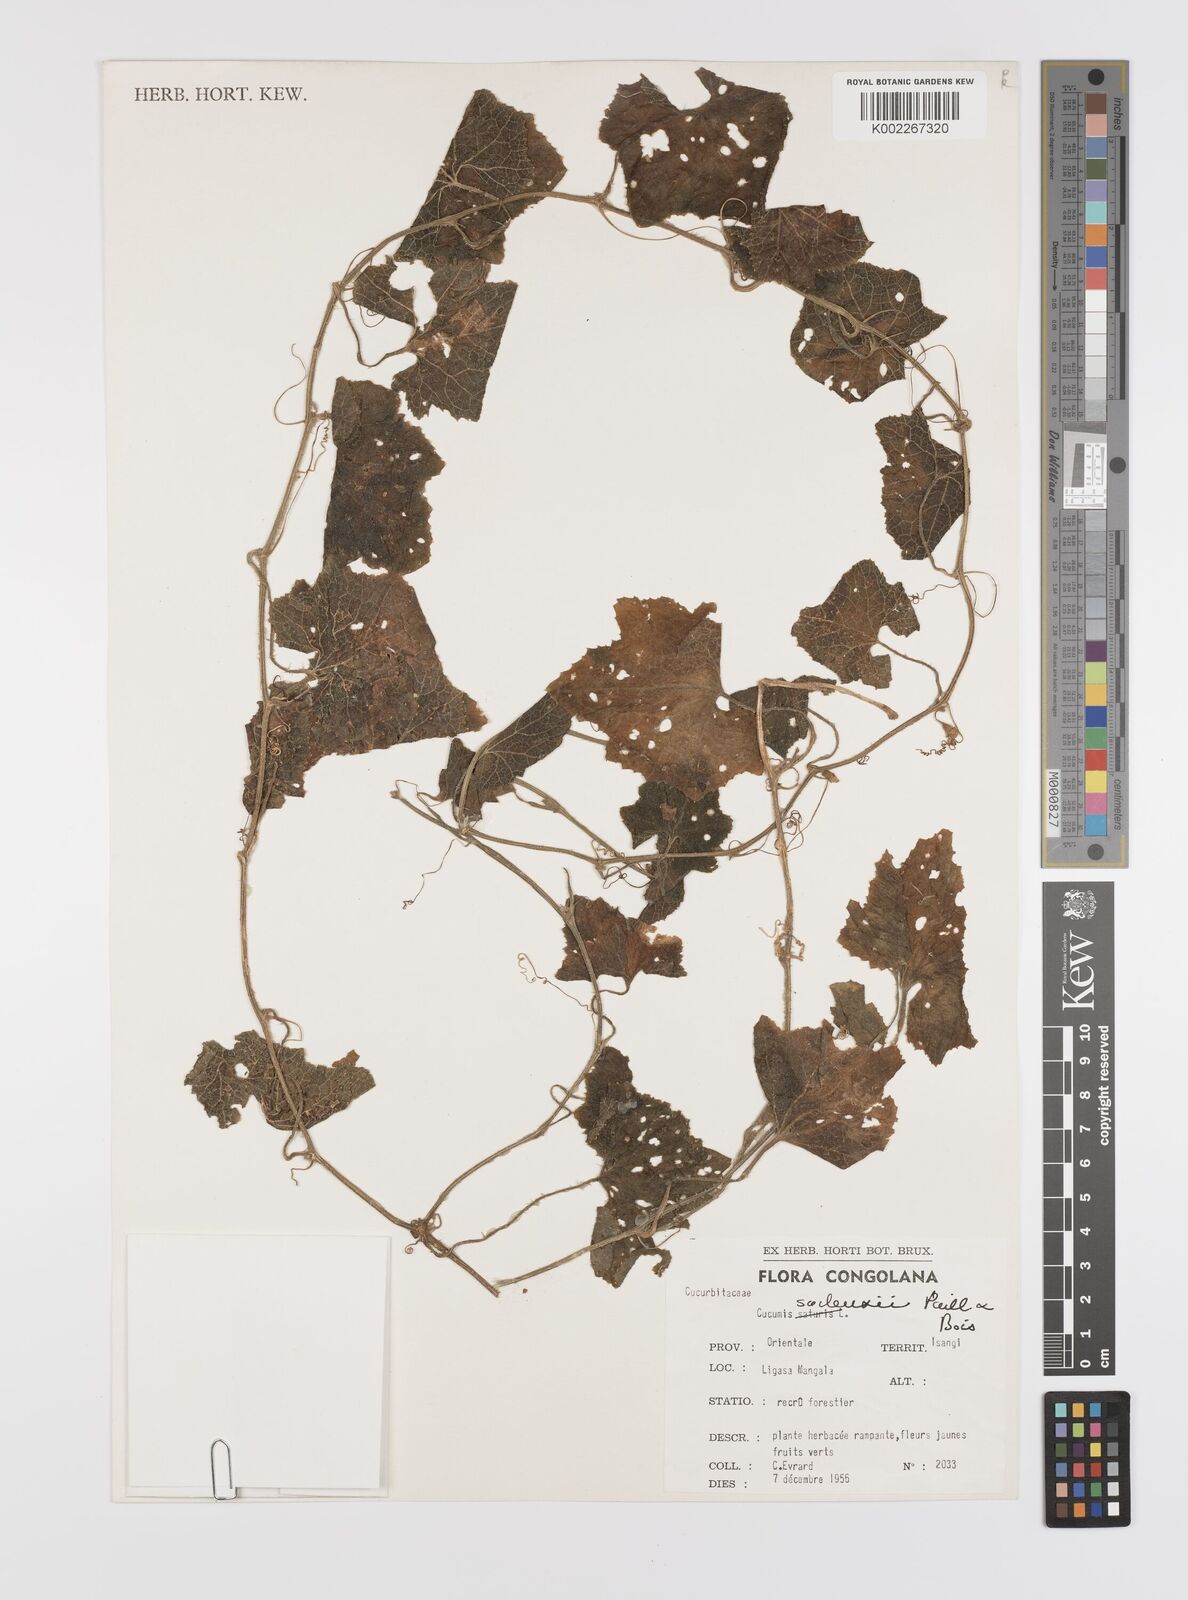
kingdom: Plantae
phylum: Tracheophyta
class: Magnoliopsida
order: Cucurbitales
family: Cucurbitaceae
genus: Cucumis
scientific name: Cucumis sacleuxii
